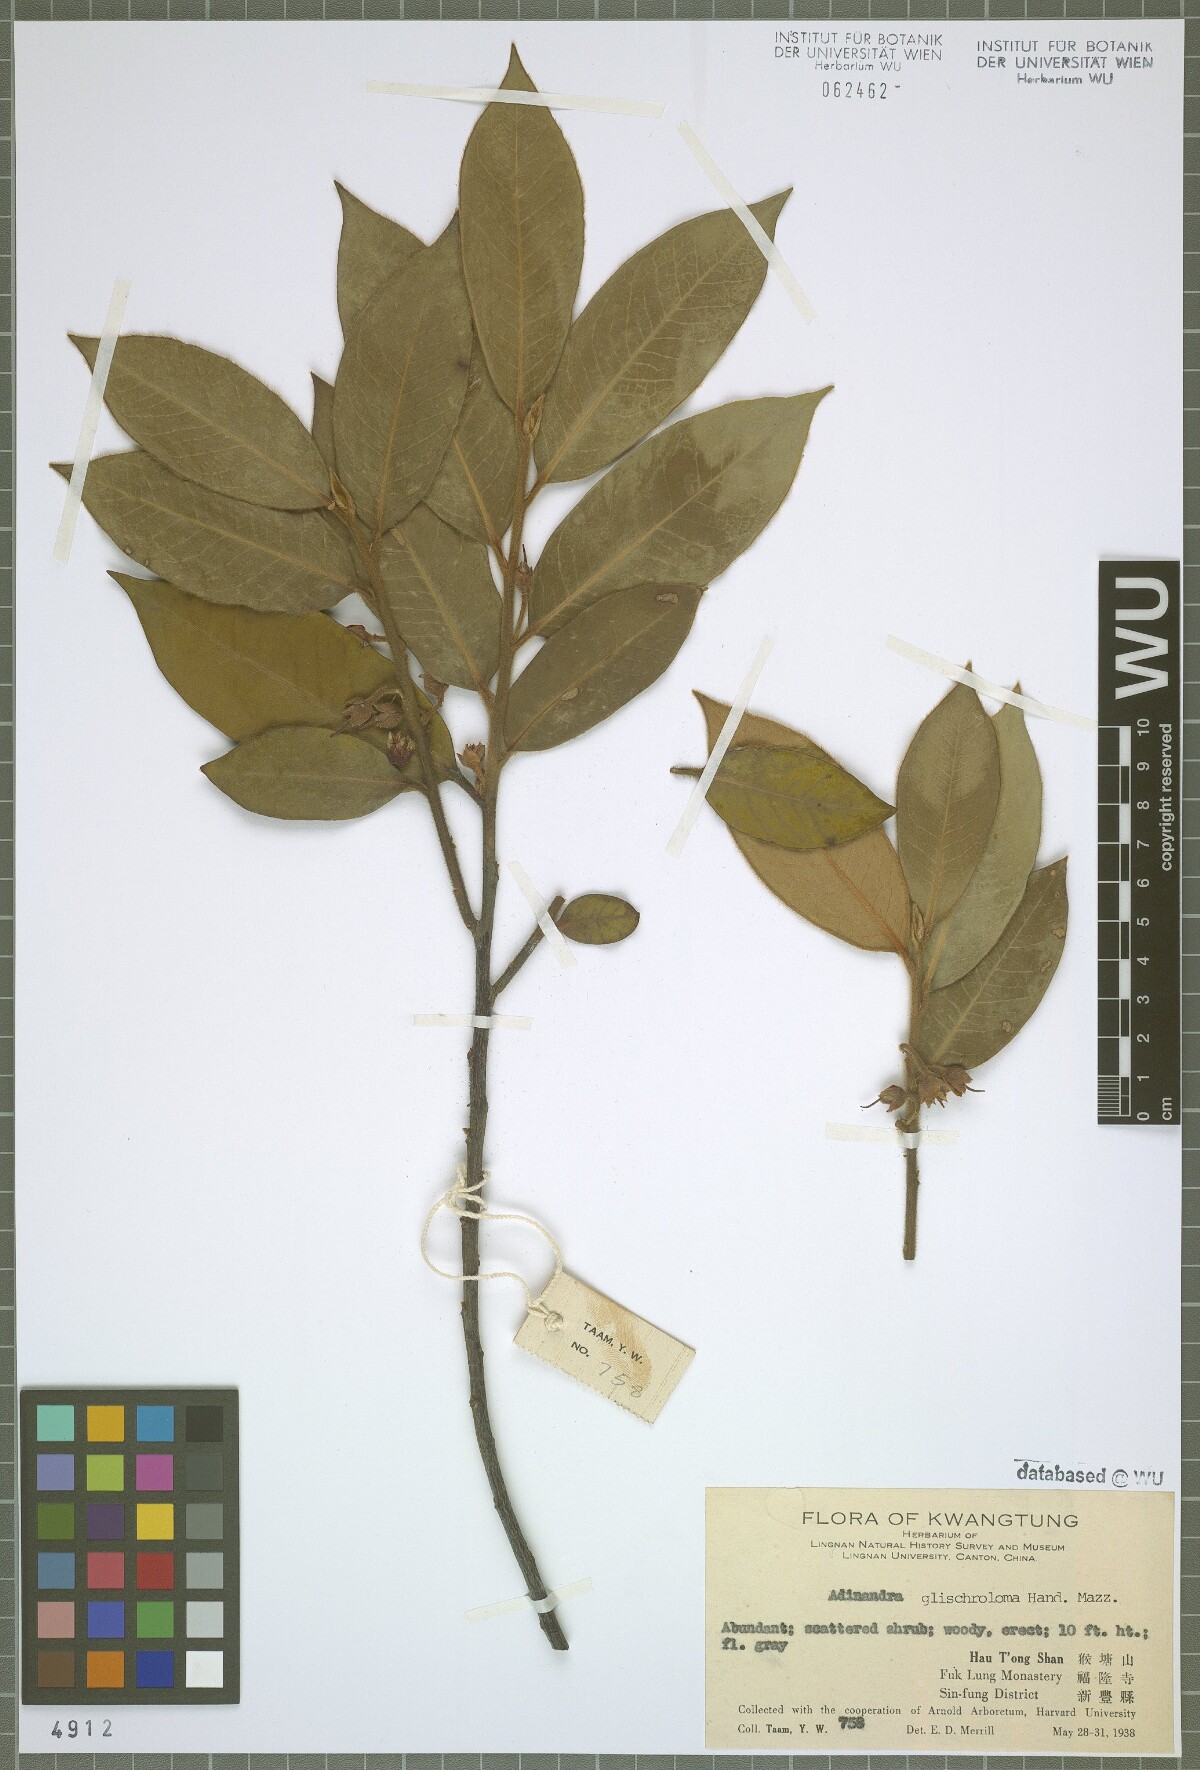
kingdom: Plantae
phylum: Tracheophyta
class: Magnoliopsida
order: Ericales
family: Pentaphylacaceae
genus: Adinandra
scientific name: Adinandra glischroloma
